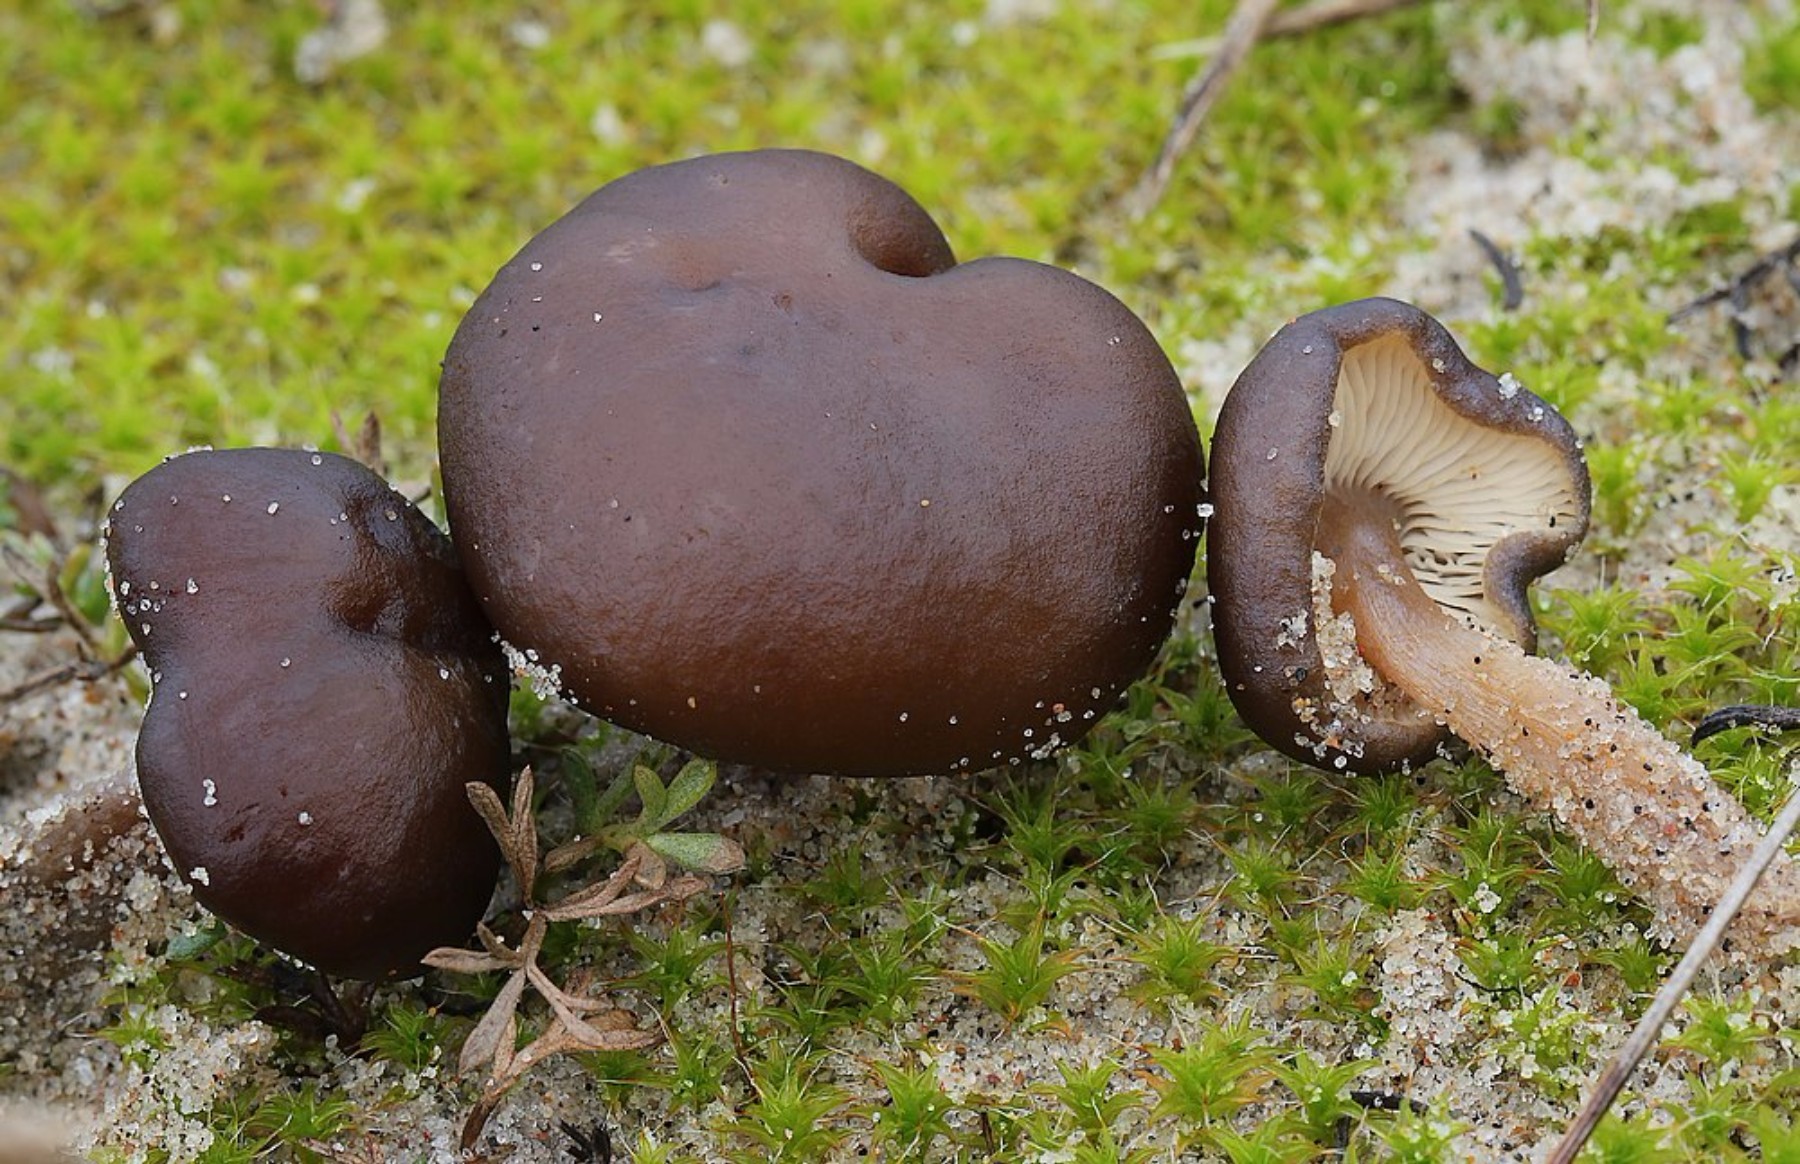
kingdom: Fungi
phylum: Basidiomycota
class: Agaricomycetes
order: Agaricales
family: Tricholomataceae
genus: Melanoleuca
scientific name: Melanoleuca
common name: munkehat
